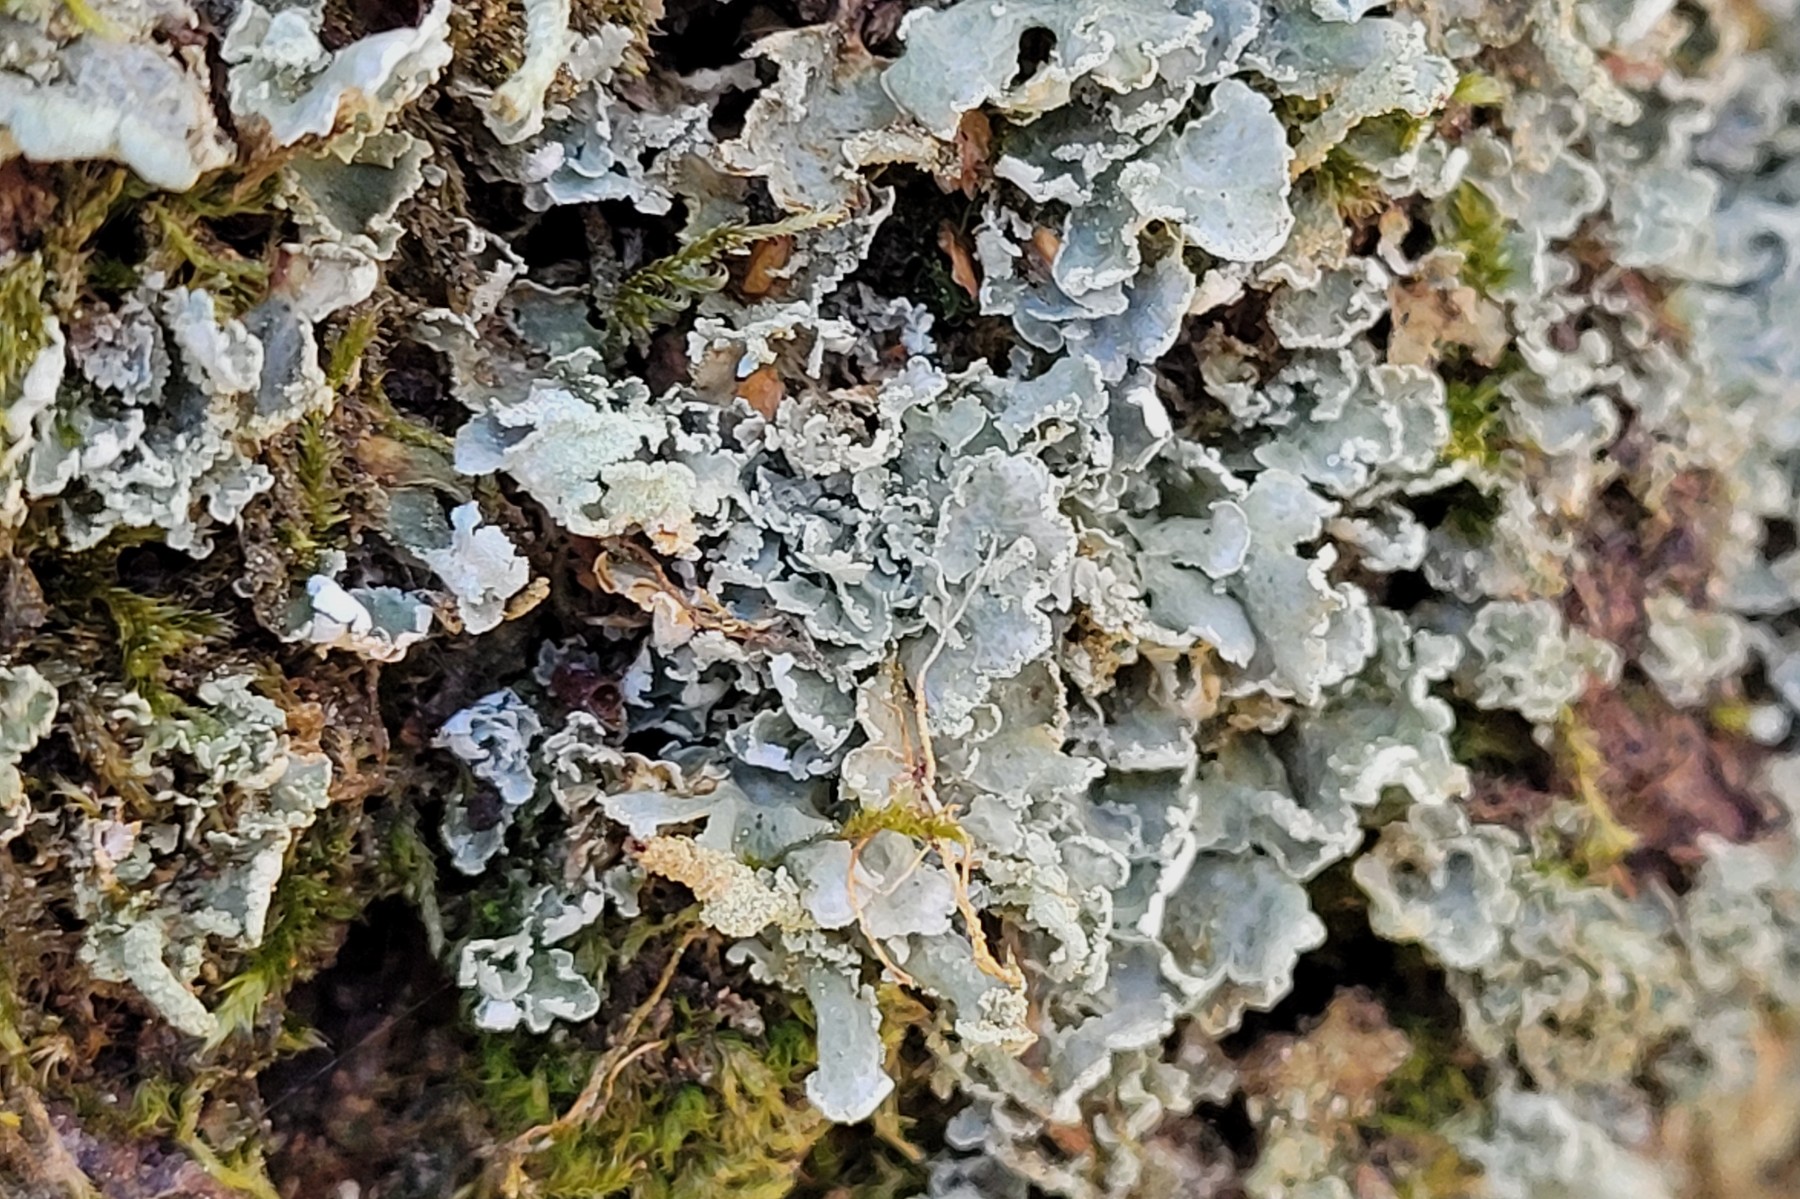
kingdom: Fungi
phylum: Ascomycota
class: Lecanoromycetes
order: Lecanorales
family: Cladoniaceae
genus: Cladonia
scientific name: Cladonia digitata
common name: finger-bægerlav
